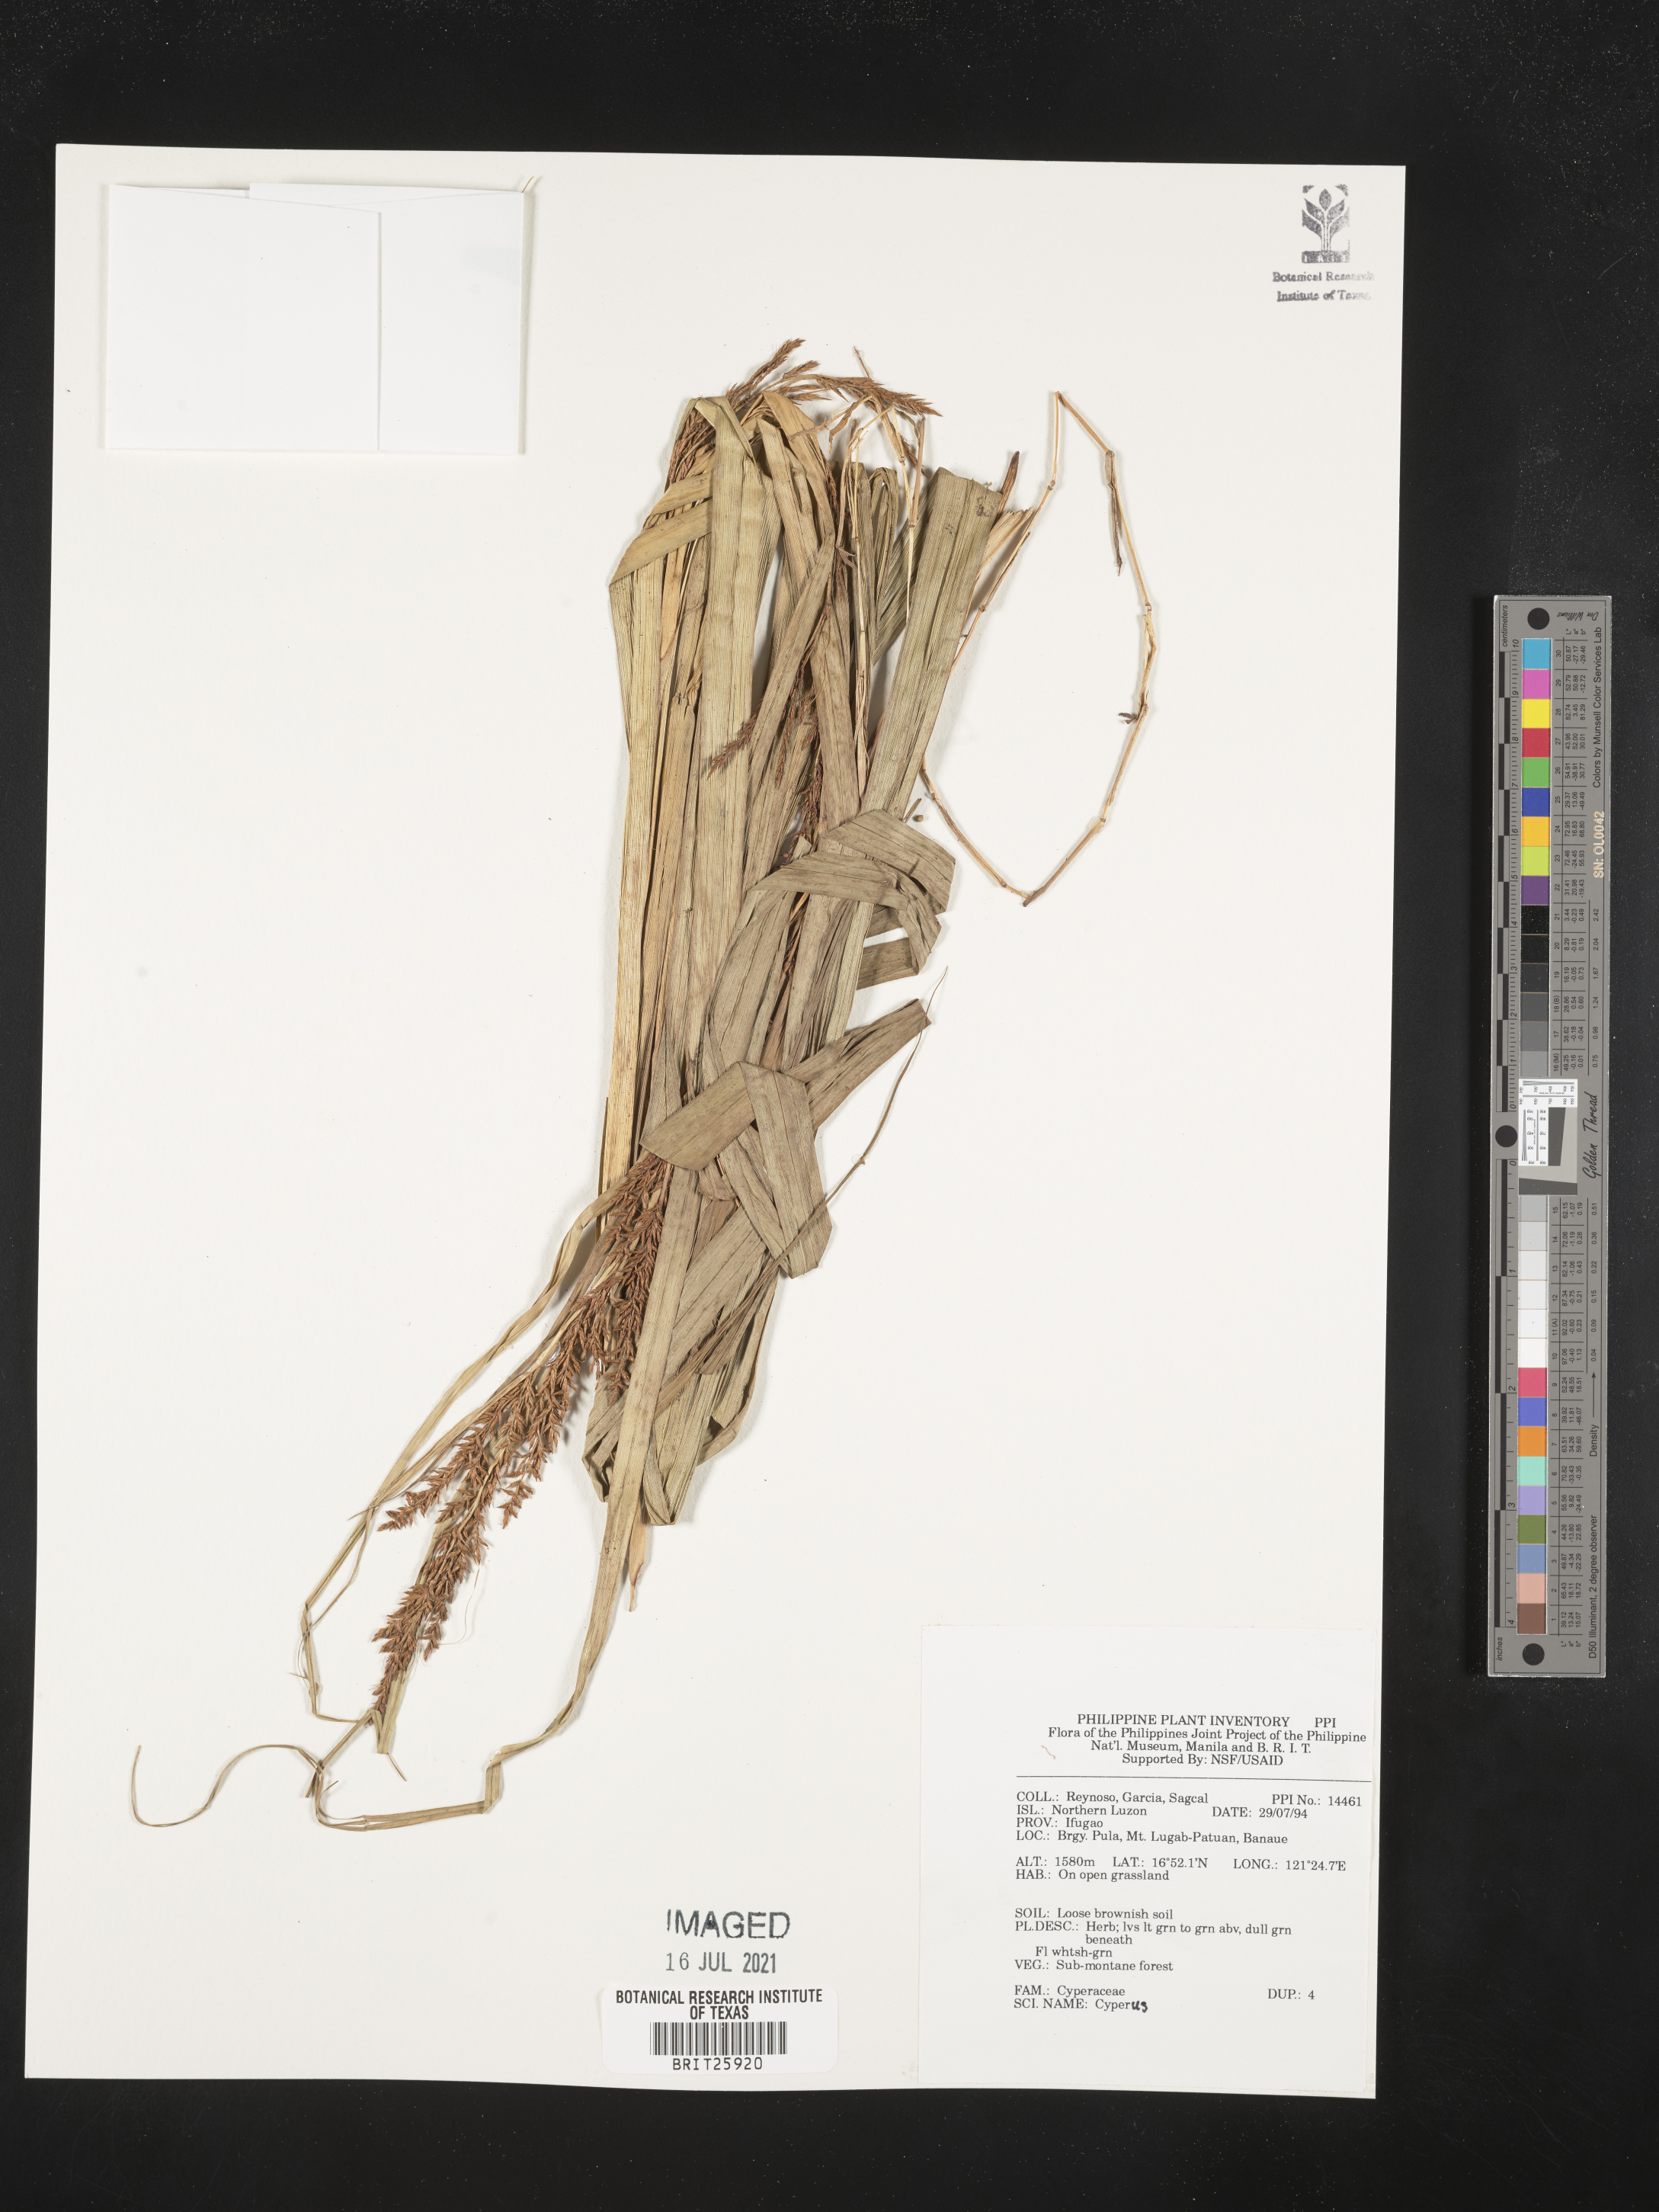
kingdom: Plantae
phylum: Tracheophyta
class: Liliopsida
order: Poales
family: Cyperaceae
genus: Cyperus
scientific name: Cyperus
